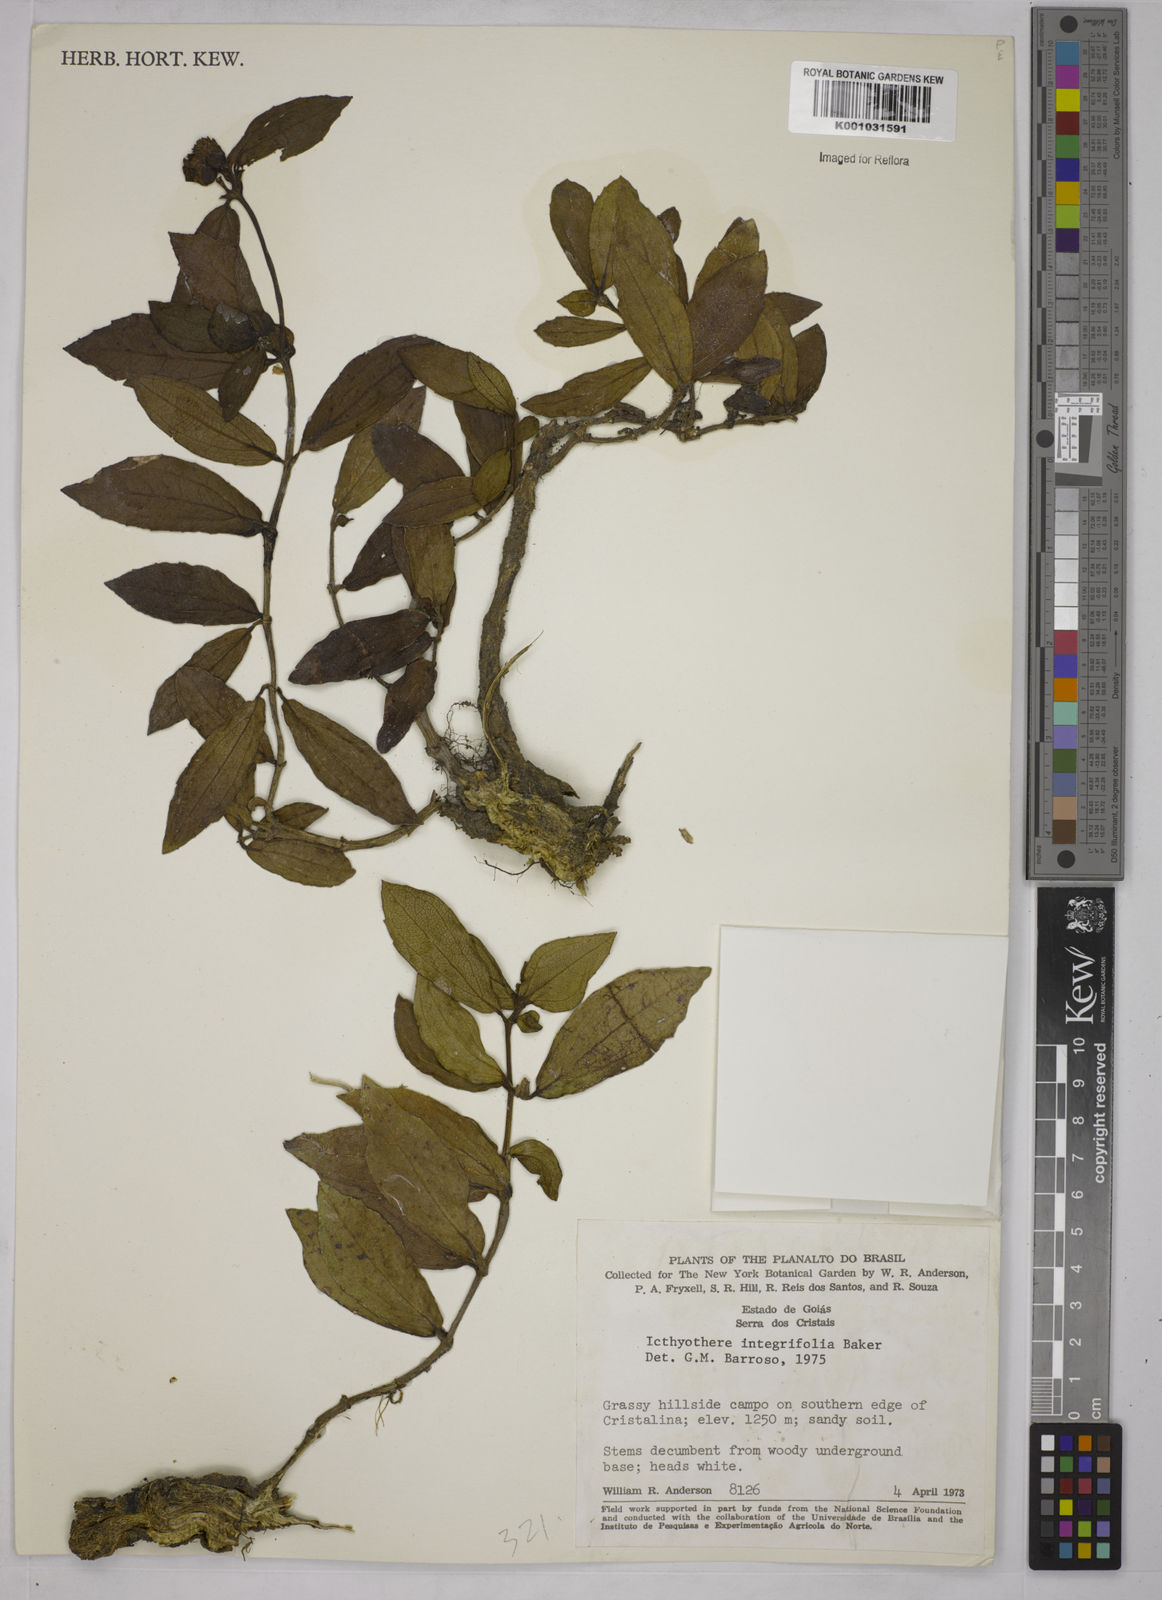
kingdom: Plantae
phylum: Tracheophyta
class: Magnoliopsida
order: Asterales
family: Asteraceae
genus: Ichthyothere
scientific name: Ichthyothere integrifolia
